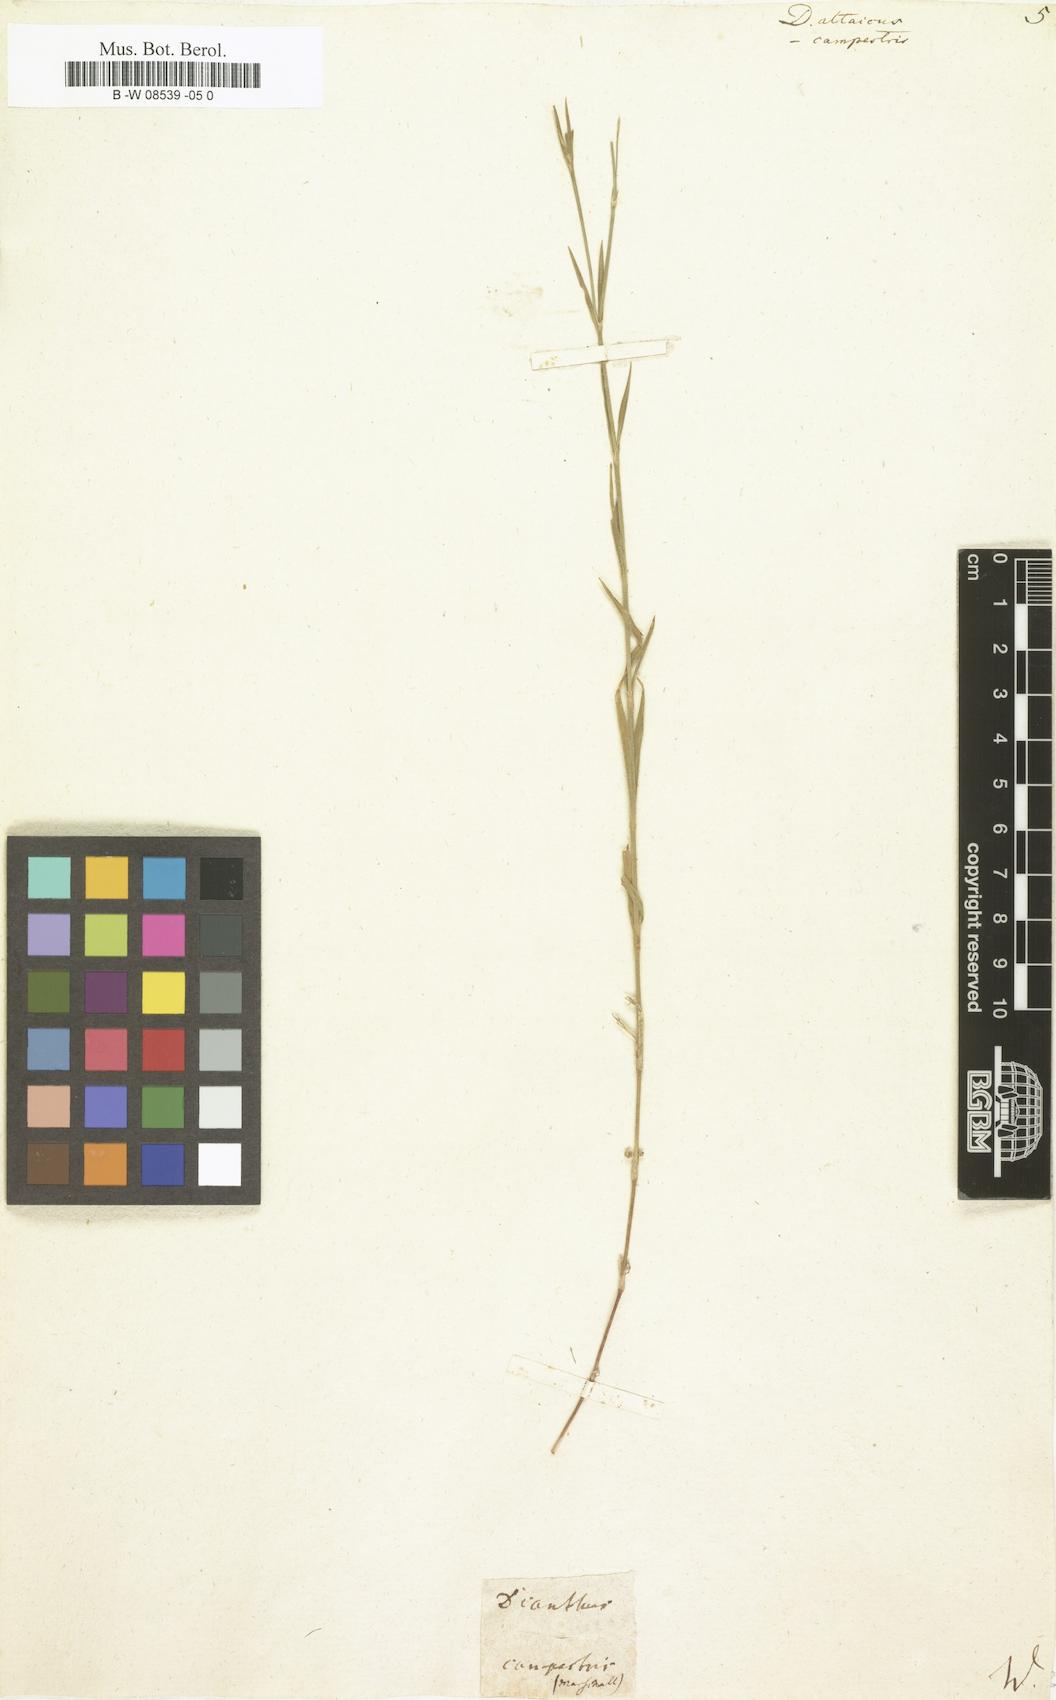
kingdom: Plantae
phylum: Tracheophyta
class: Magnoliopsida
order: Caryophyllales
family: Caryophyllaceae
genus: Dianthus
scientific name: Dianthus altaicus
